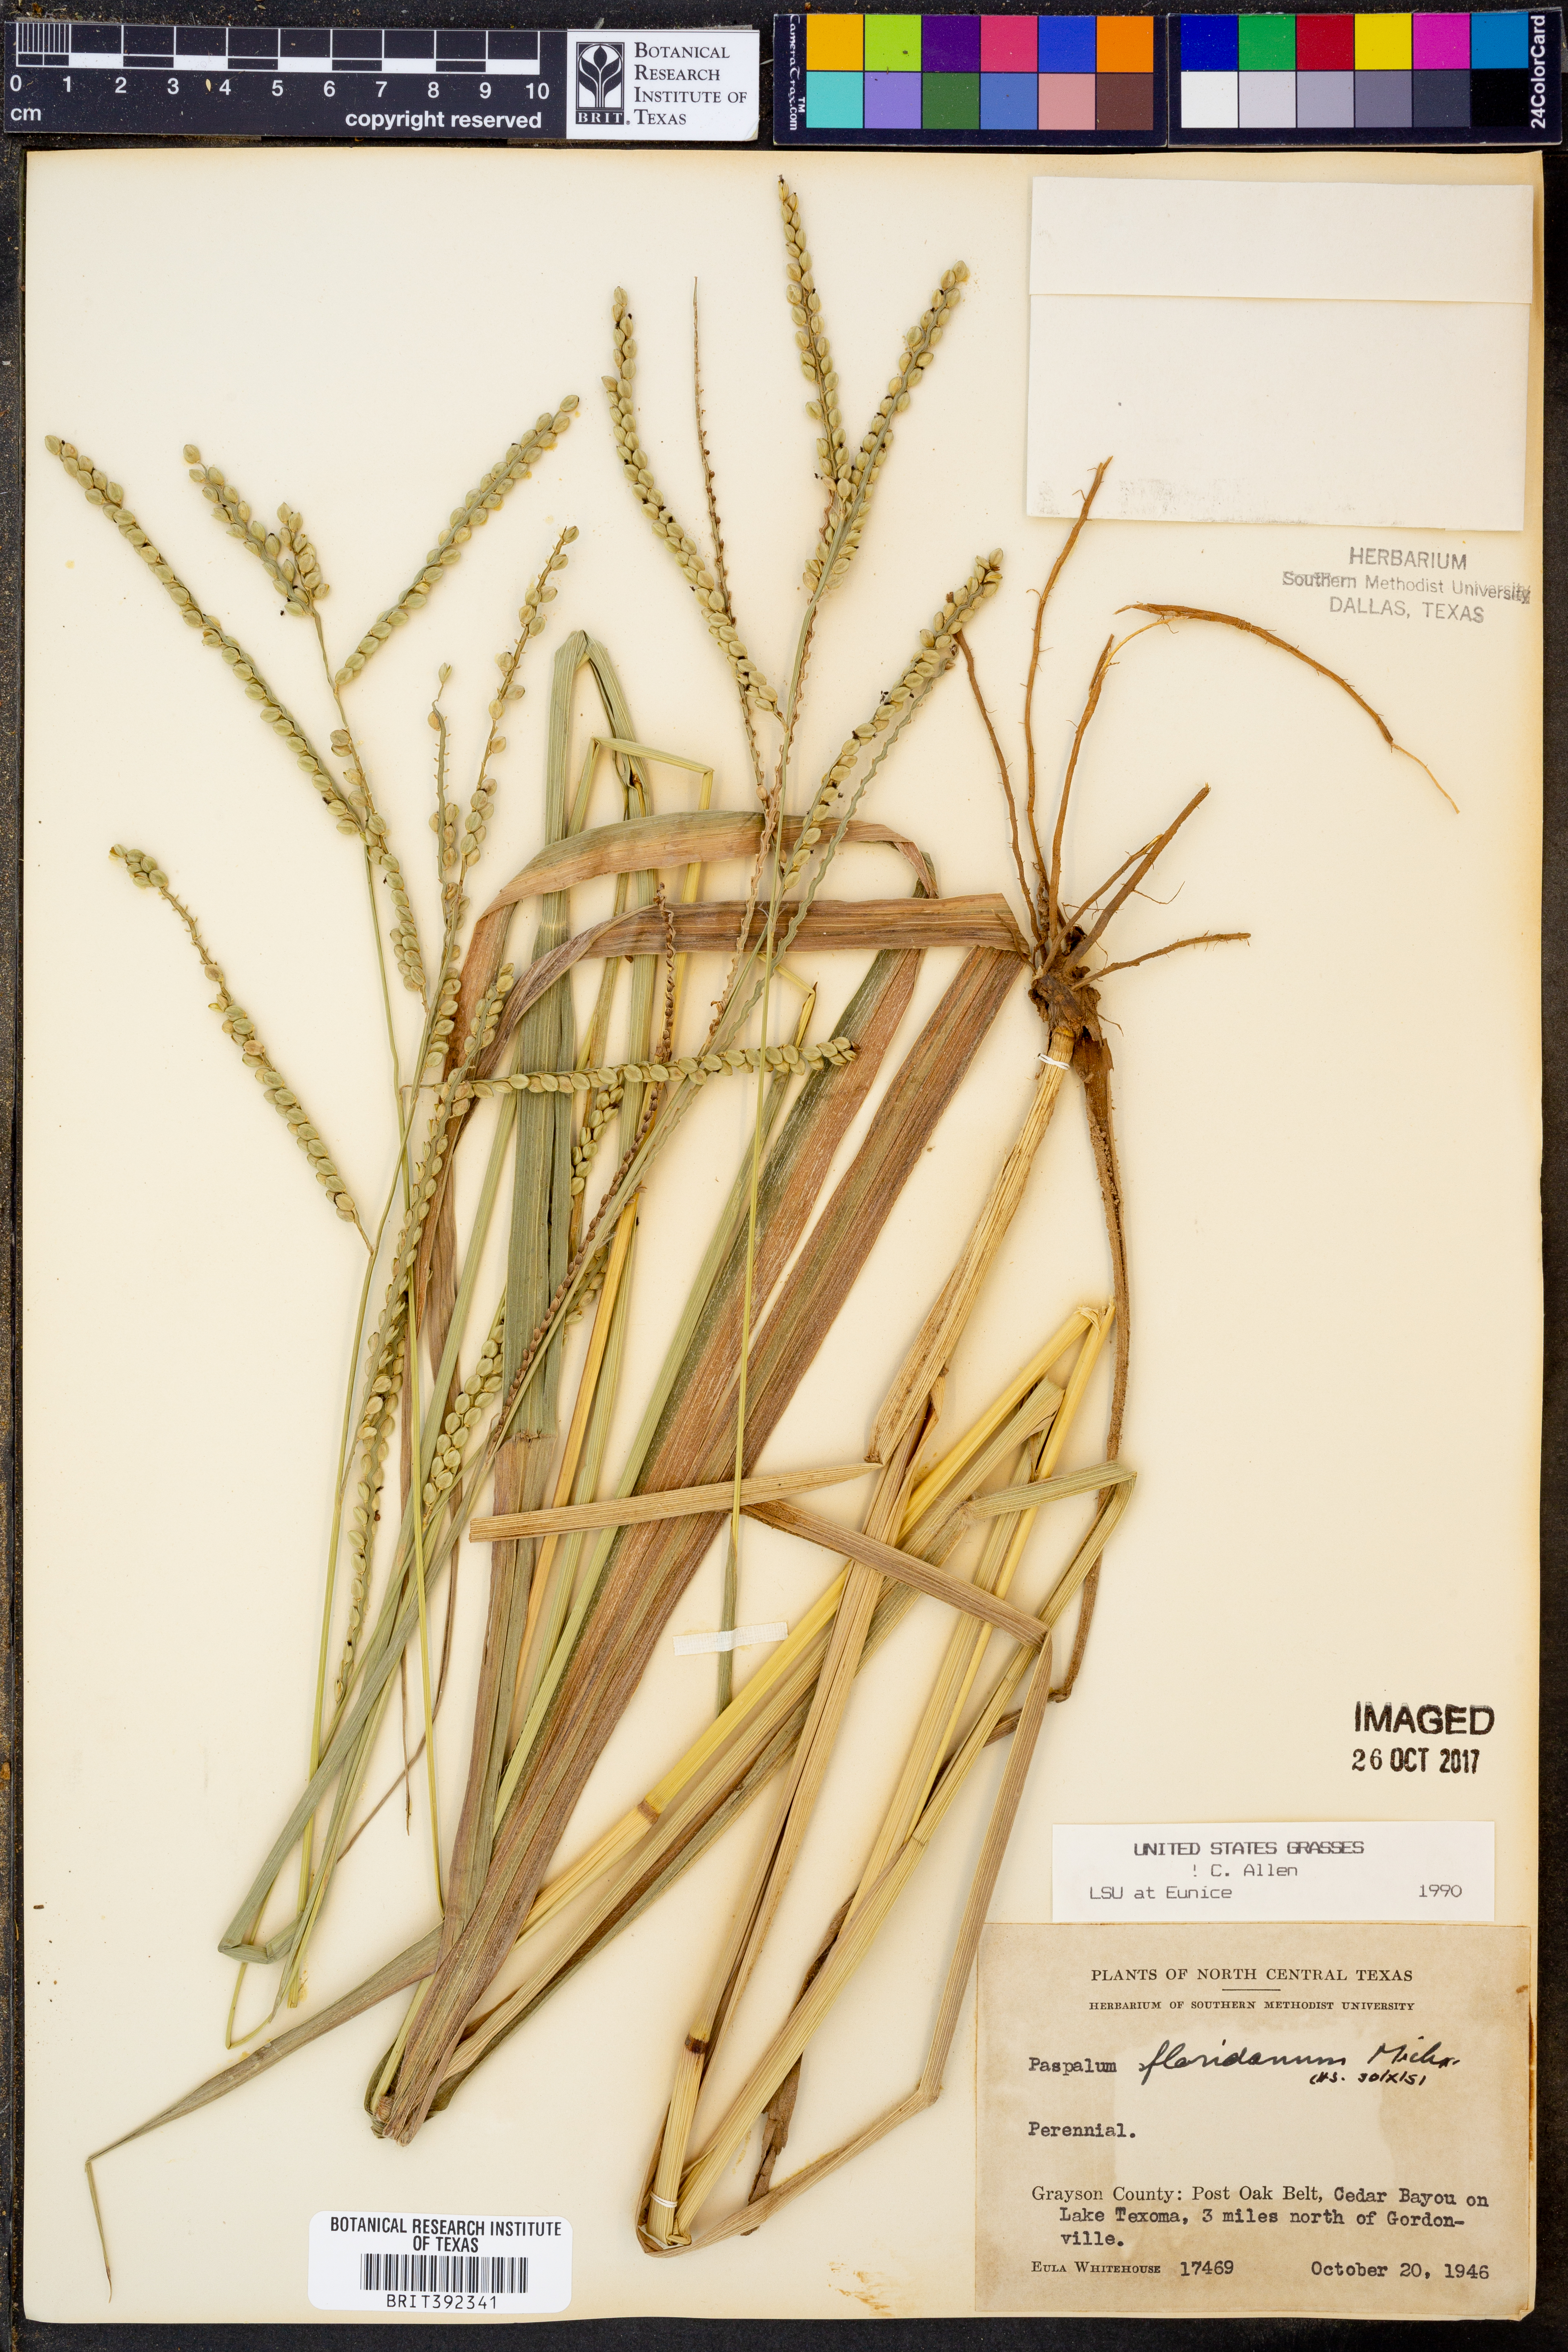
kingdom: Plantae
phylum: Tracheophyta
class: Liliopsida
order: Poales
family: Poaceae
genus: Paspalum
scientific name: Paspalum floridanum
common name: Florida paspalum
